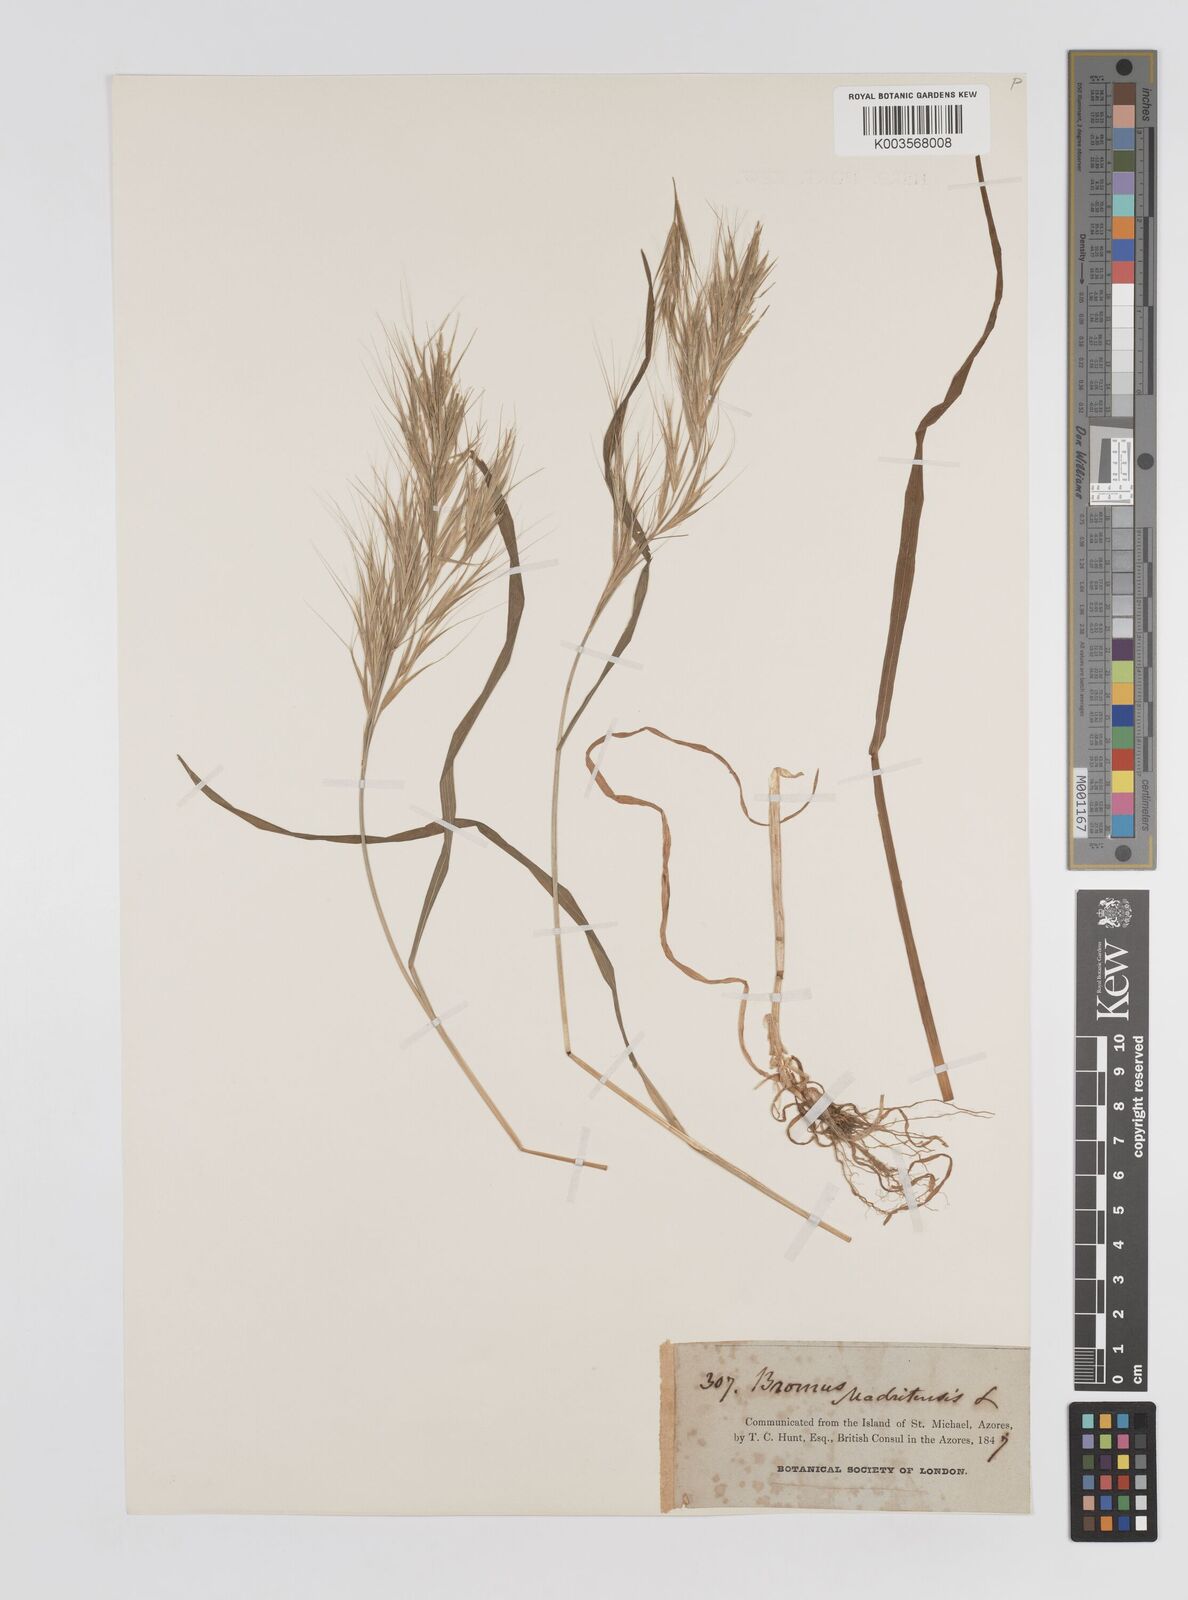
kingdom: Plantae
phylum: Tracheophyta
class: Liliopsida
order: Poales
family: Poaceae
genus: Bromus
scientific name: Bromus
